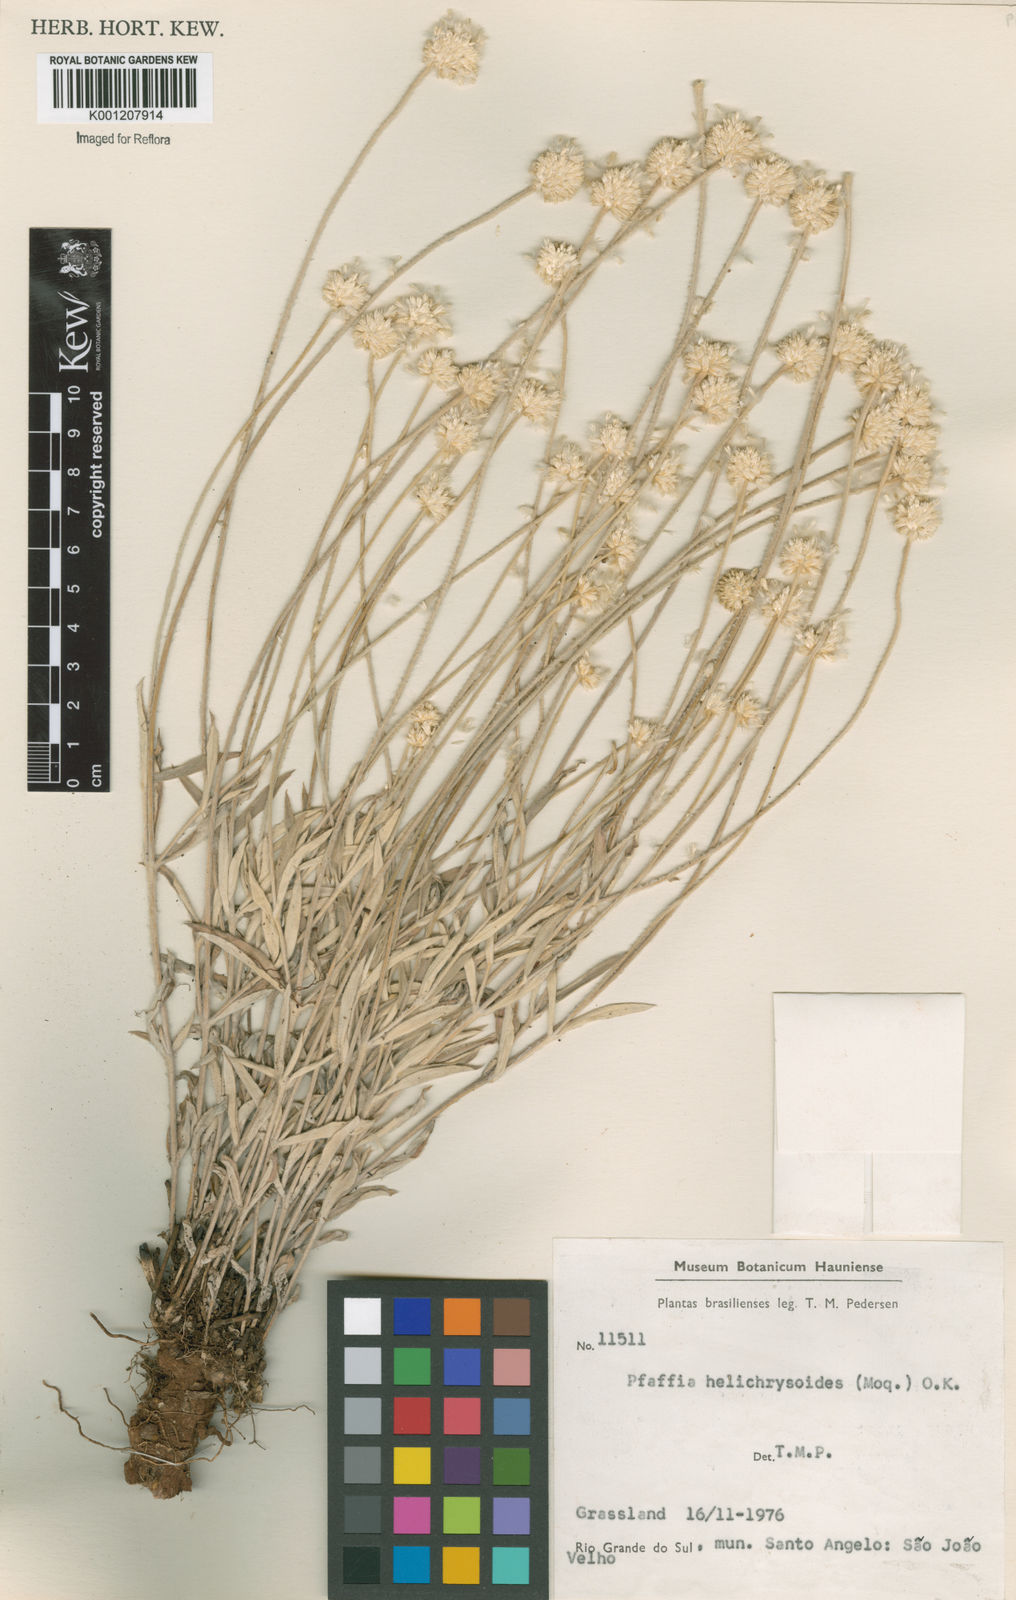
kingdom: Plantae
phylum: Tracheophyta
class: Magnoliopsida
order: Caryophyllales
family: Amaranthaceae
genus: Pfaffia
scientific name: Pfaffia
